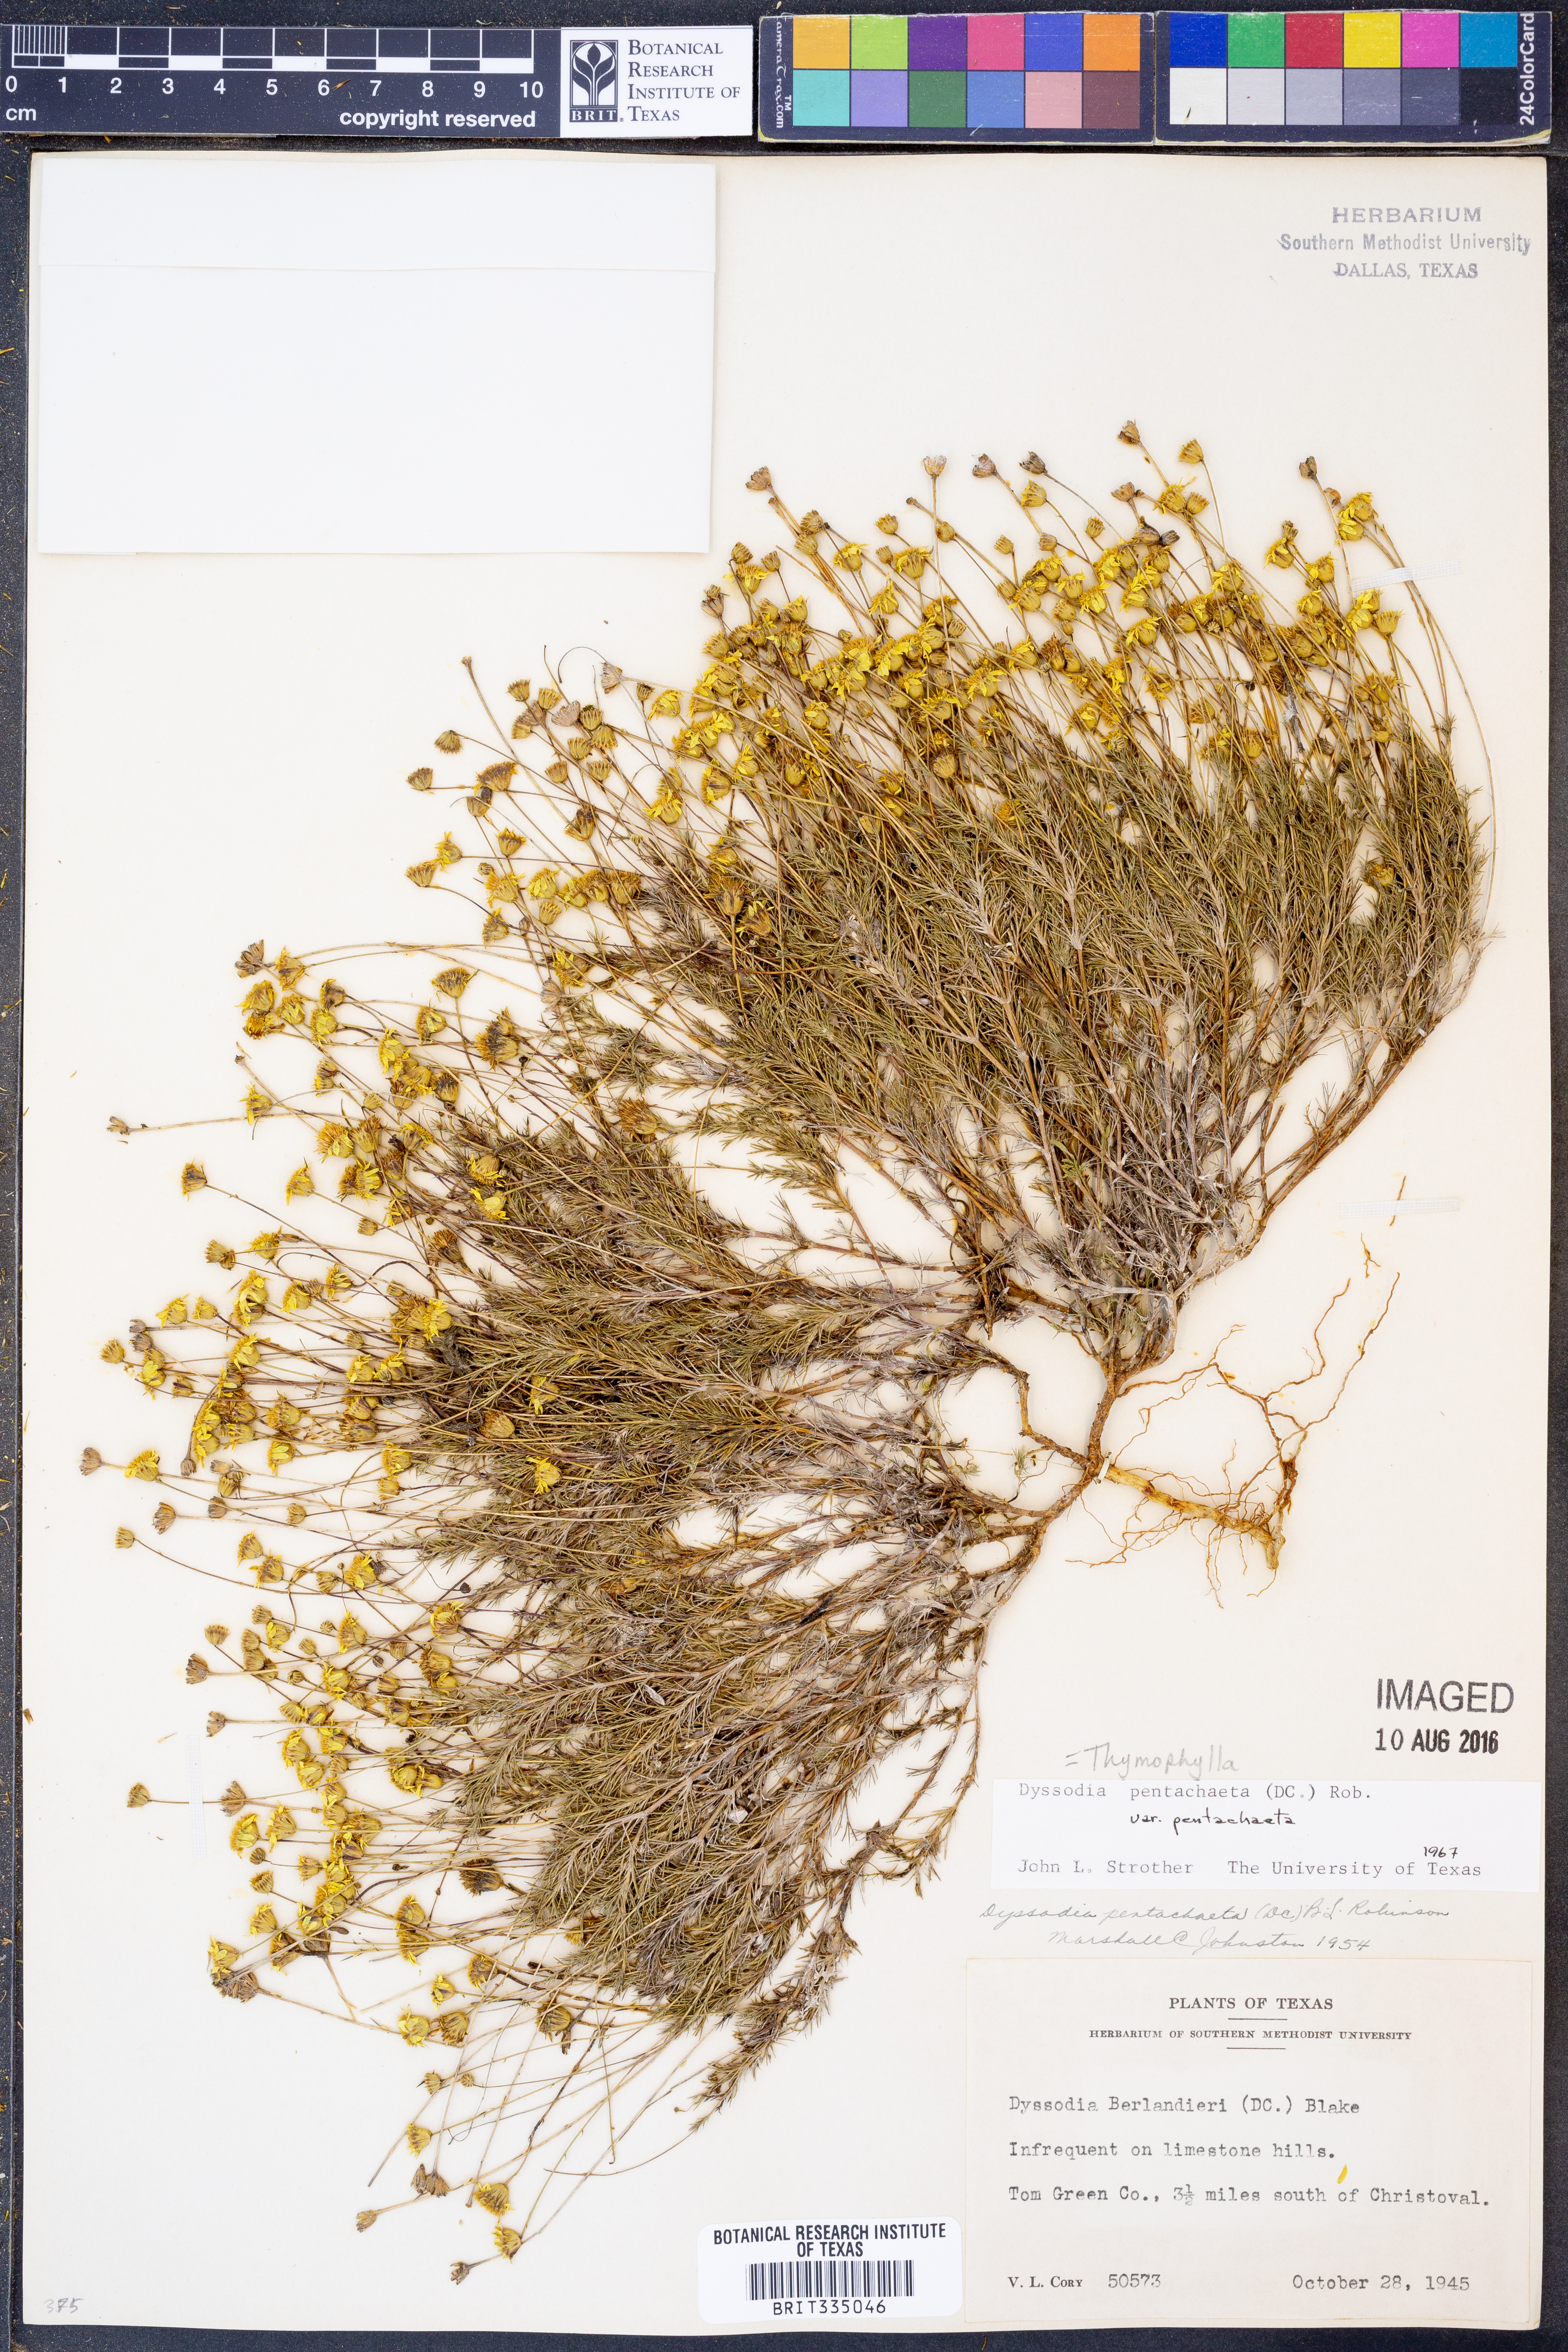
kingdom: Plantae
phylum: Tracheophyta
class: Magnoliopsida
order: Asterales
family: Asteraceae
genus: Thymophylla
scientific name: Thymophylla pentachaeta
